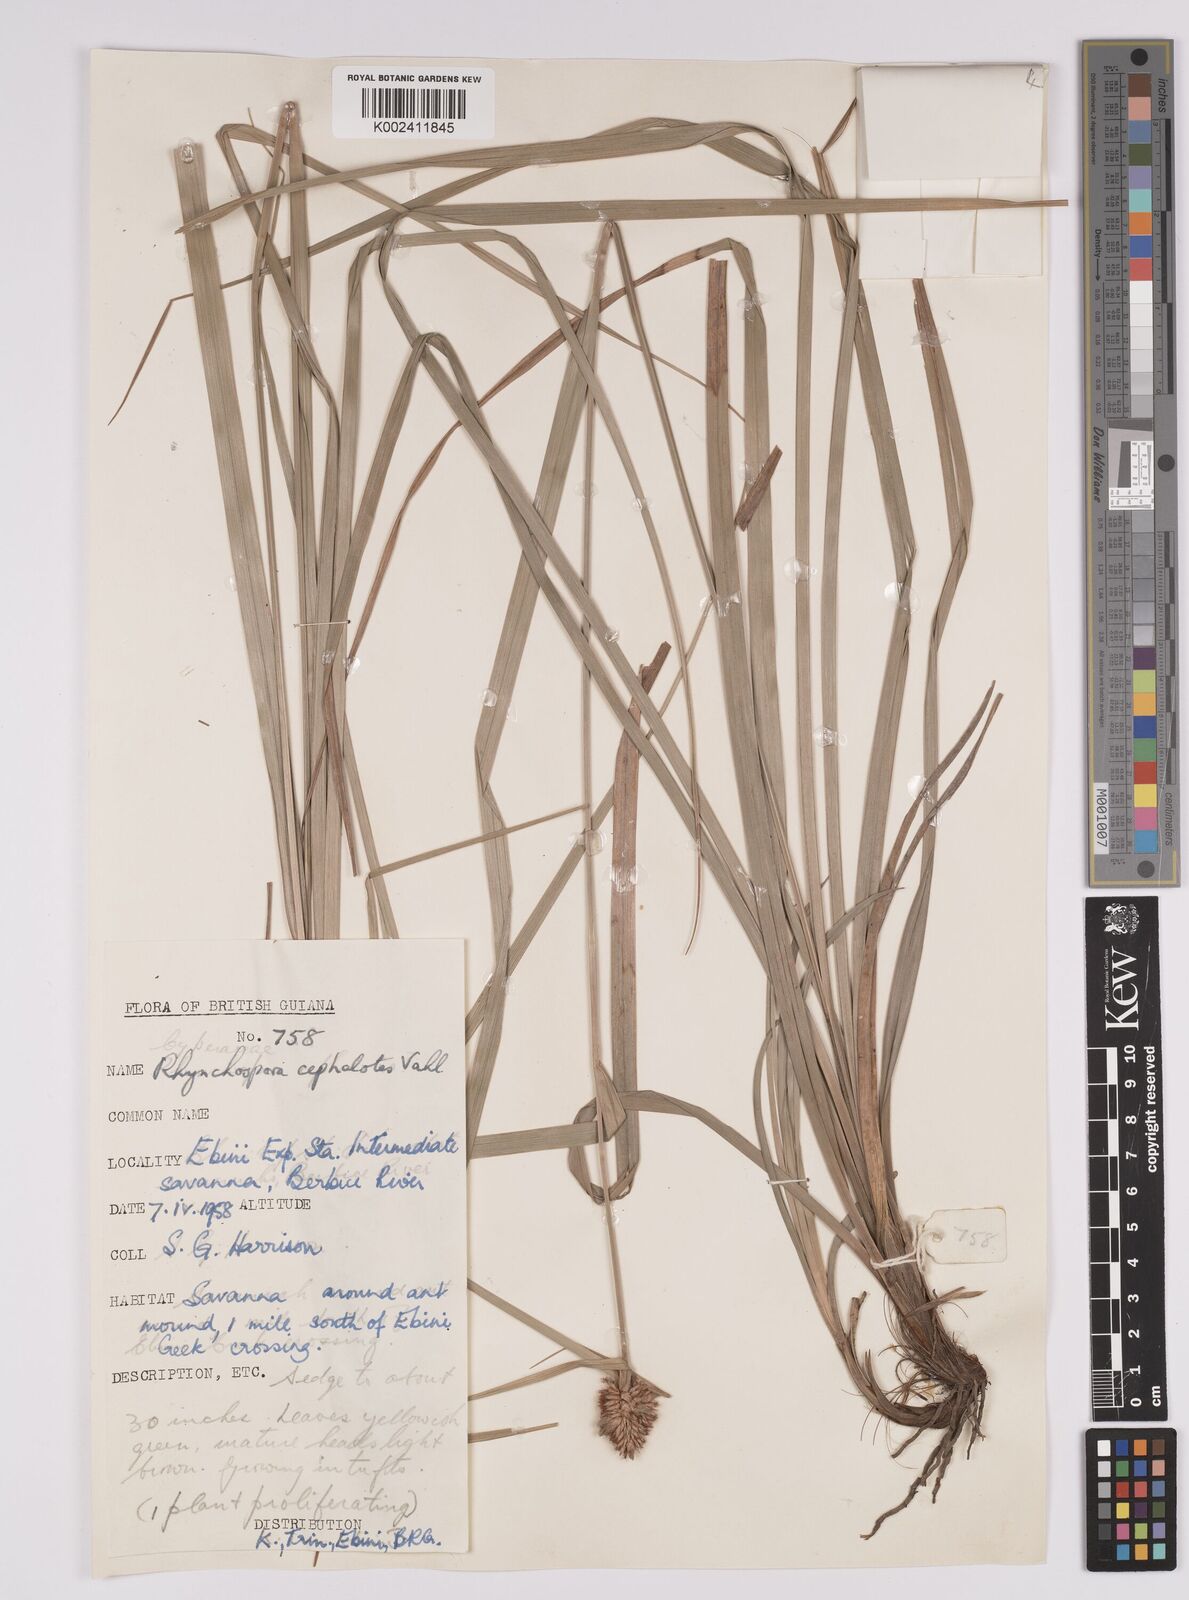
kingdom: Plantae
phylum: Tracheophyta
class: Liliopsida
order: Poales
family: Cyperaceae
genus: Rhynchospora
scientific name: Rhynchospora cephalotes
